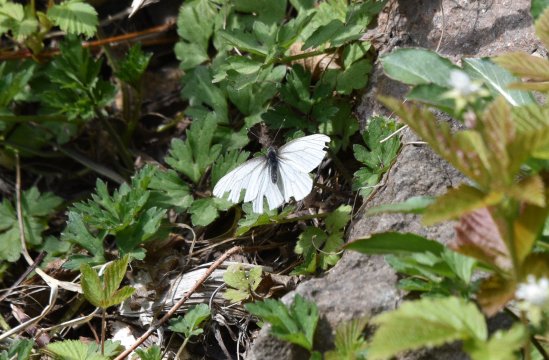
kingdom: Animalia
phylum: Arthropoda
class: Insecta
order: Lepidoptera
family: Pieridae
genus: Pieris
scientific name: Pieris oleracea
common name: Mustard White
